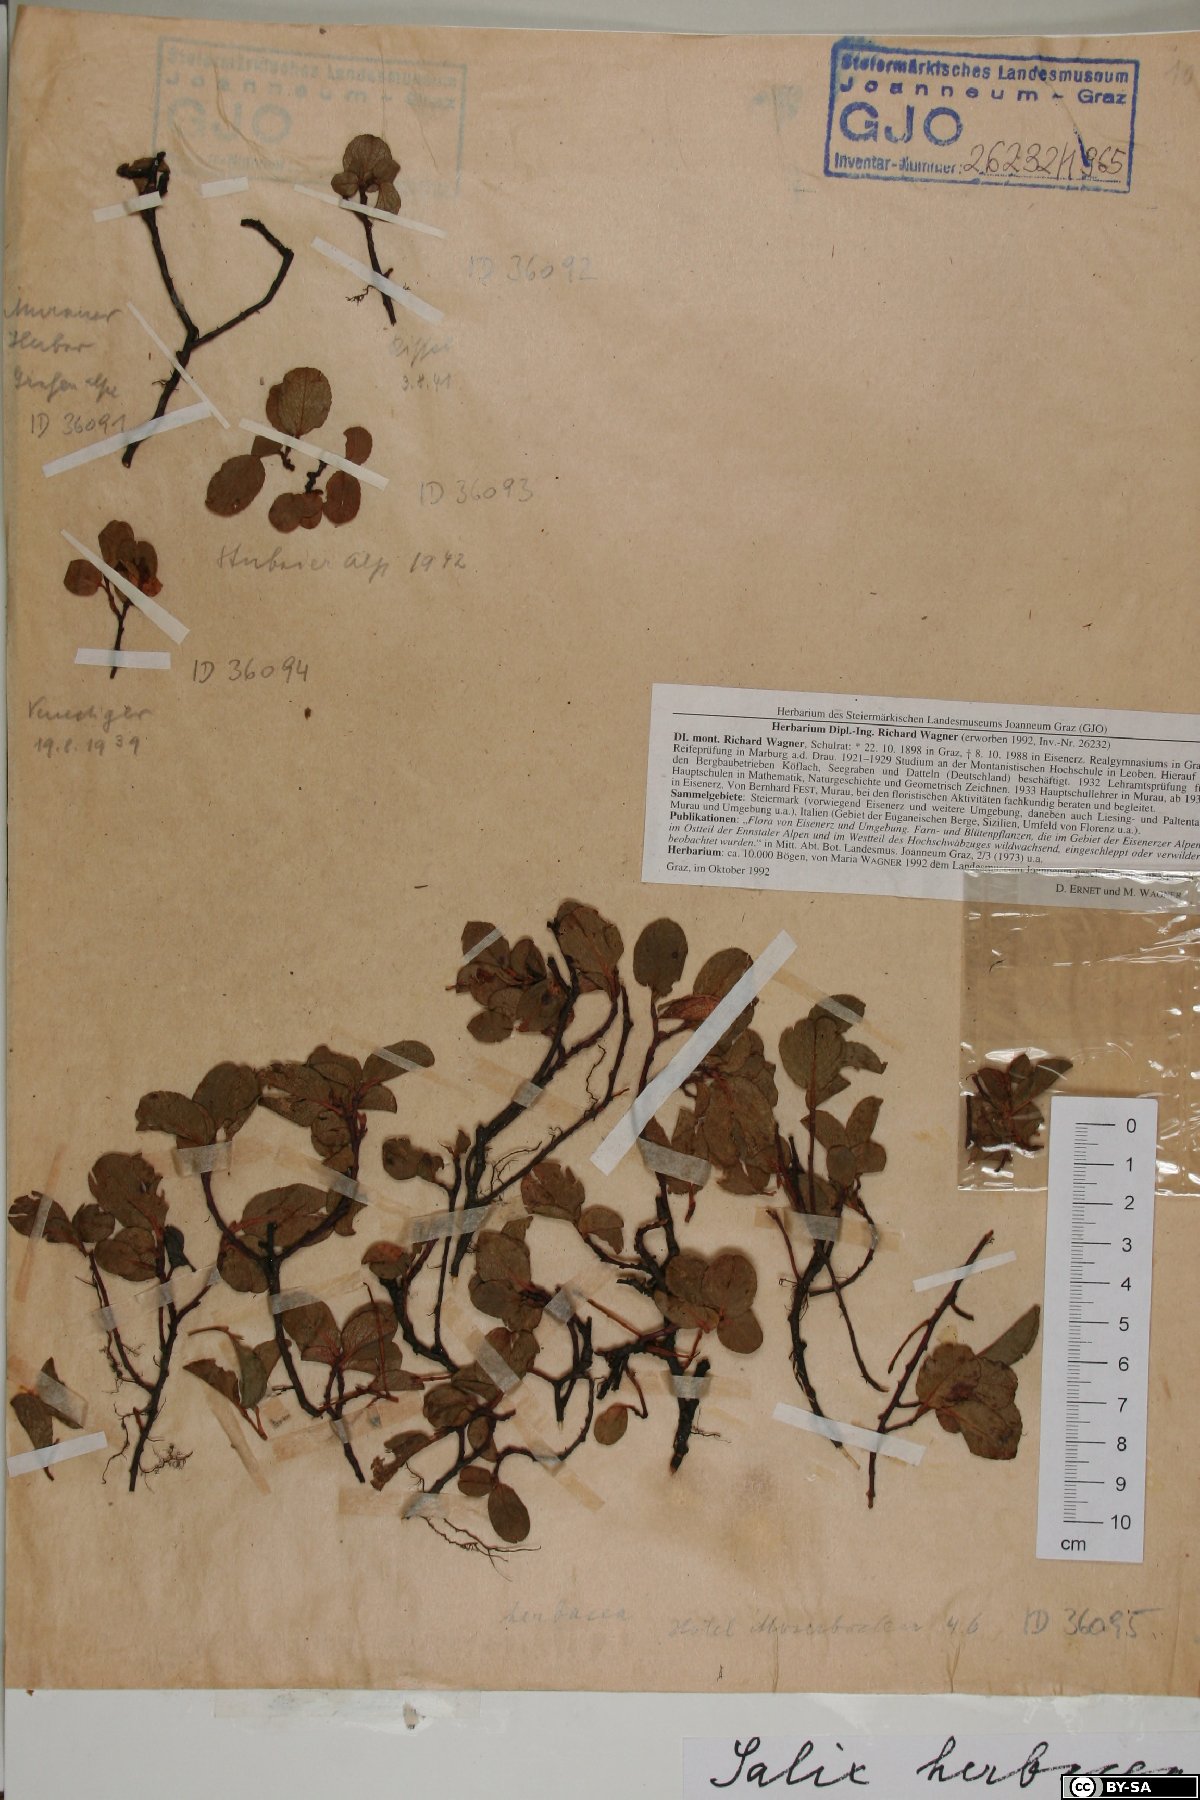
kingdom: Plantae
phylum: Tracheophyta
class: Magnoliopsida
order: Malpighiales
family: Salicaceae
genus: Salix
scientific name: Salix herbacea
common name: Dwarf willow
